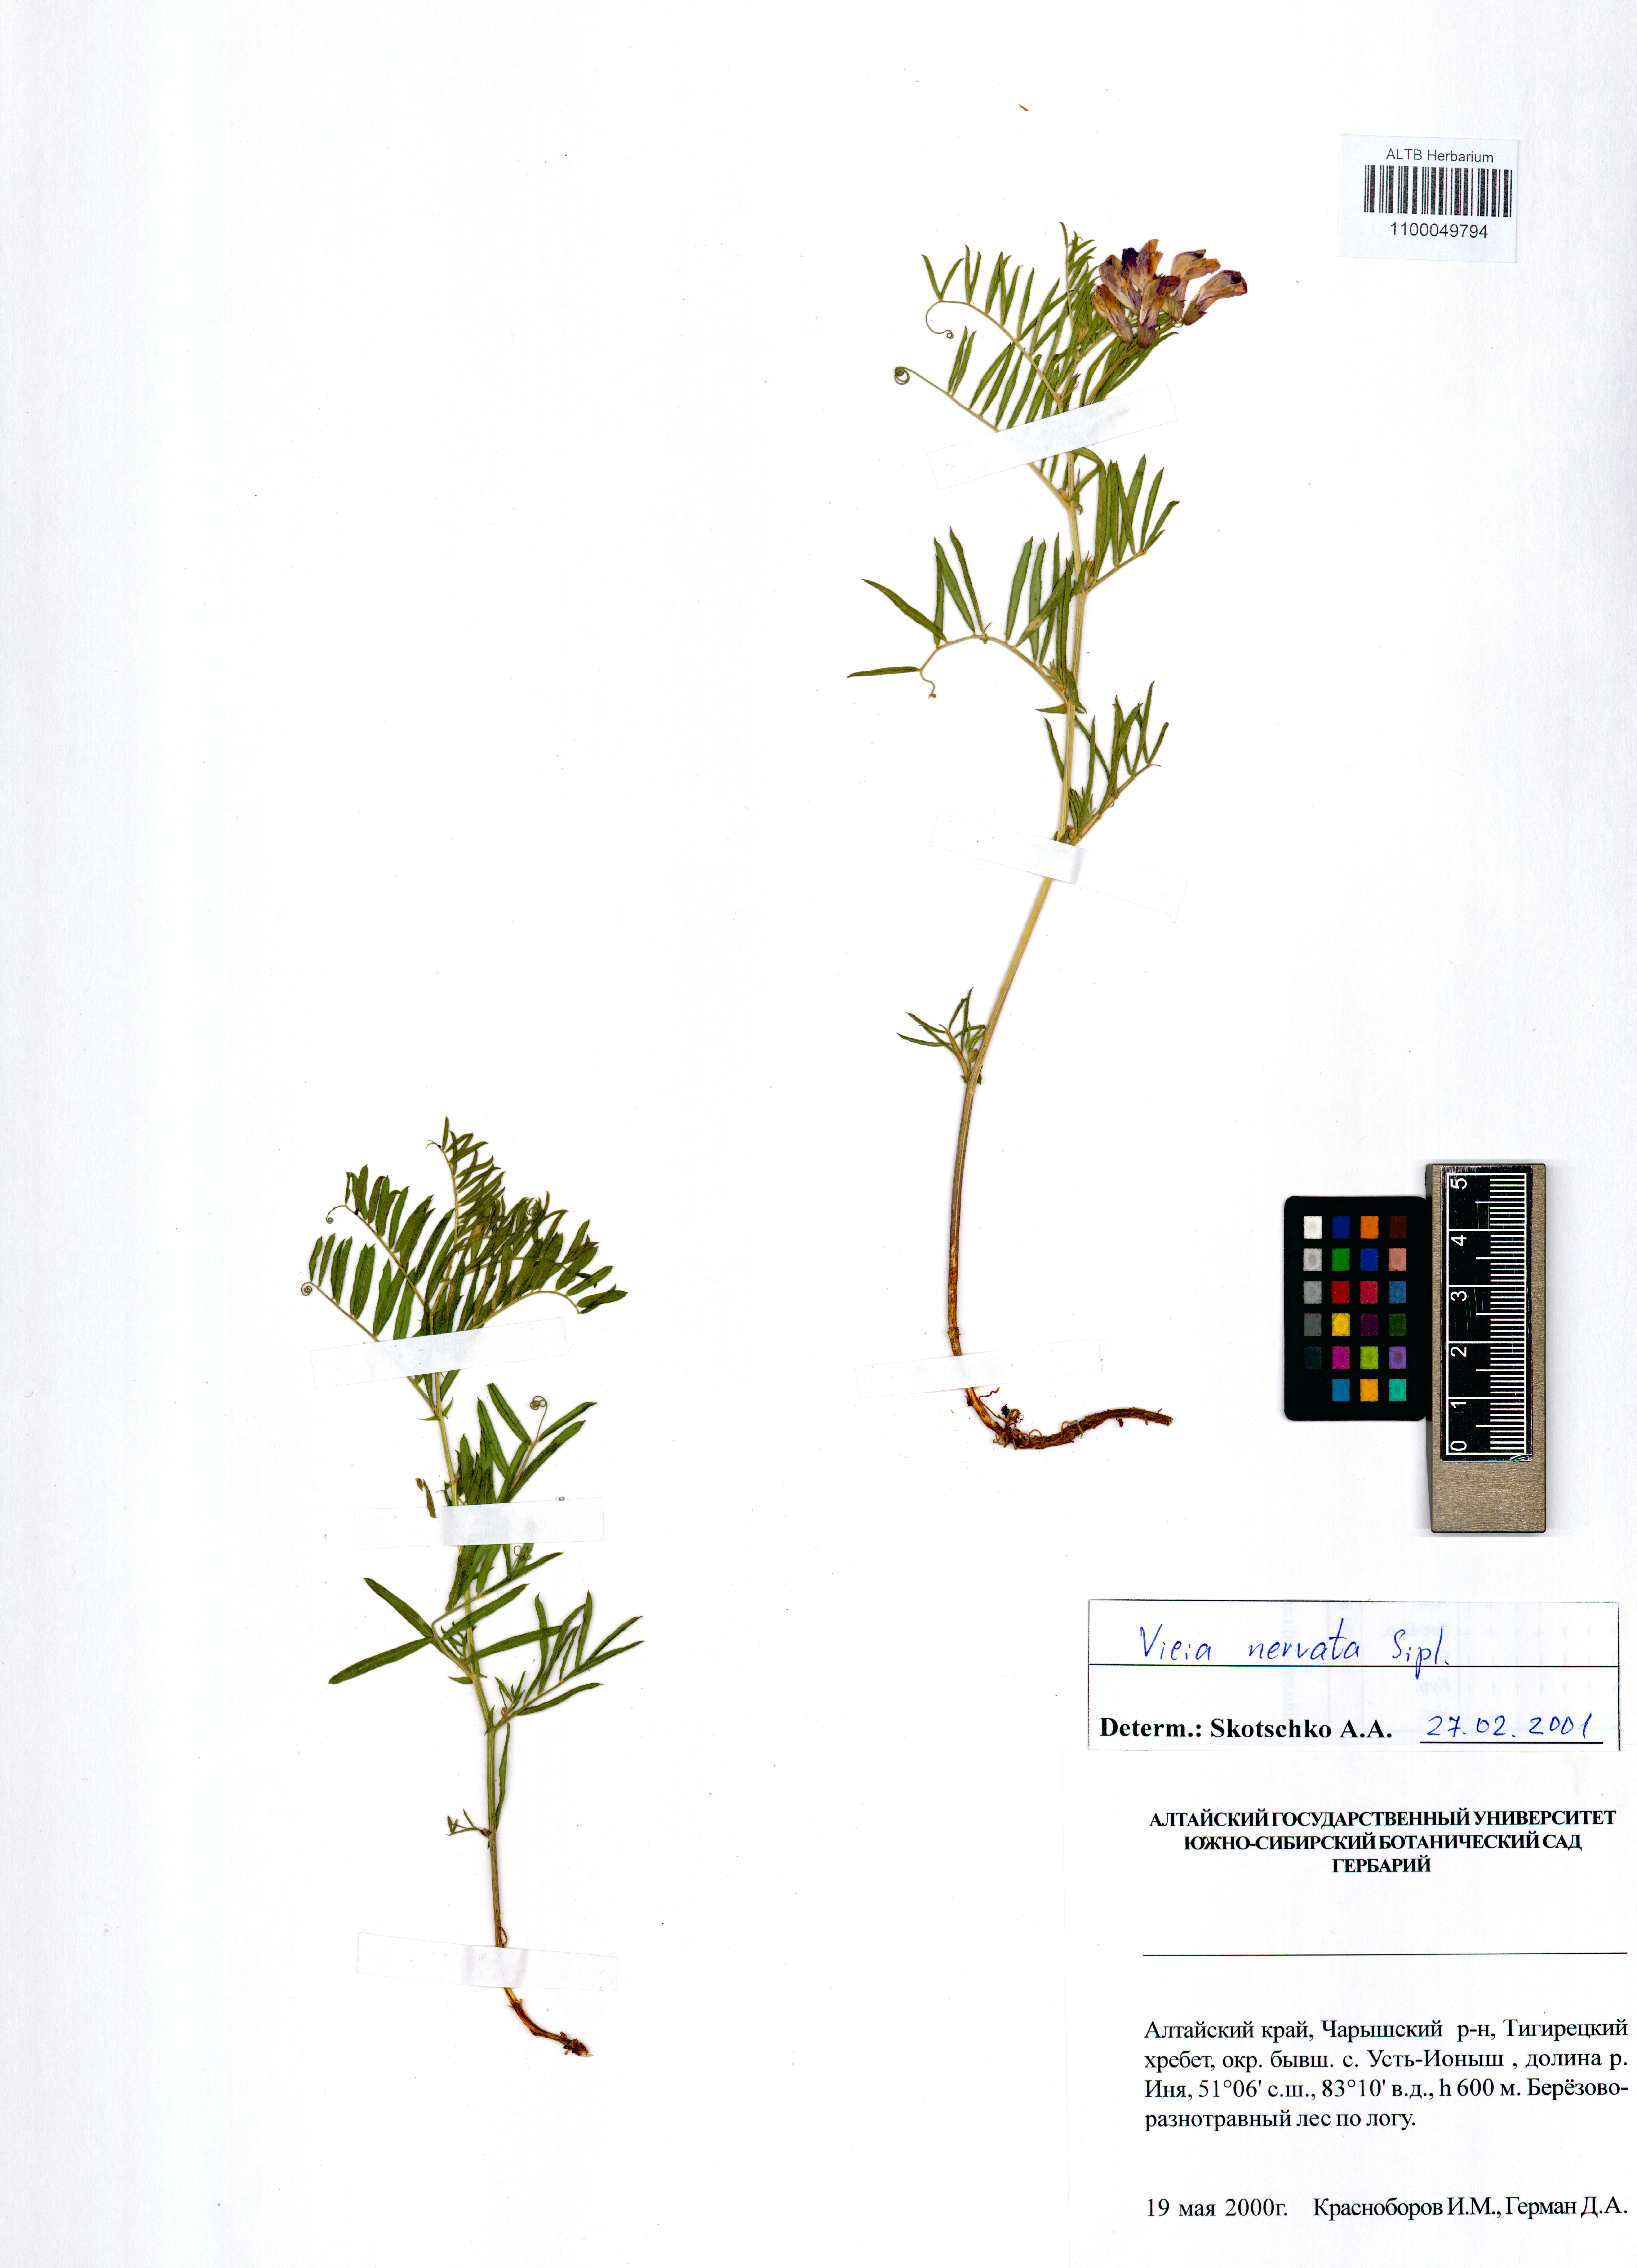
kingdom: Plantae
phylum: Tracheophyta
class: Magnoliopsida
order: Fabales
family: Fabaceae
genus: Vicia
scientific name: Vicia multicaulis
